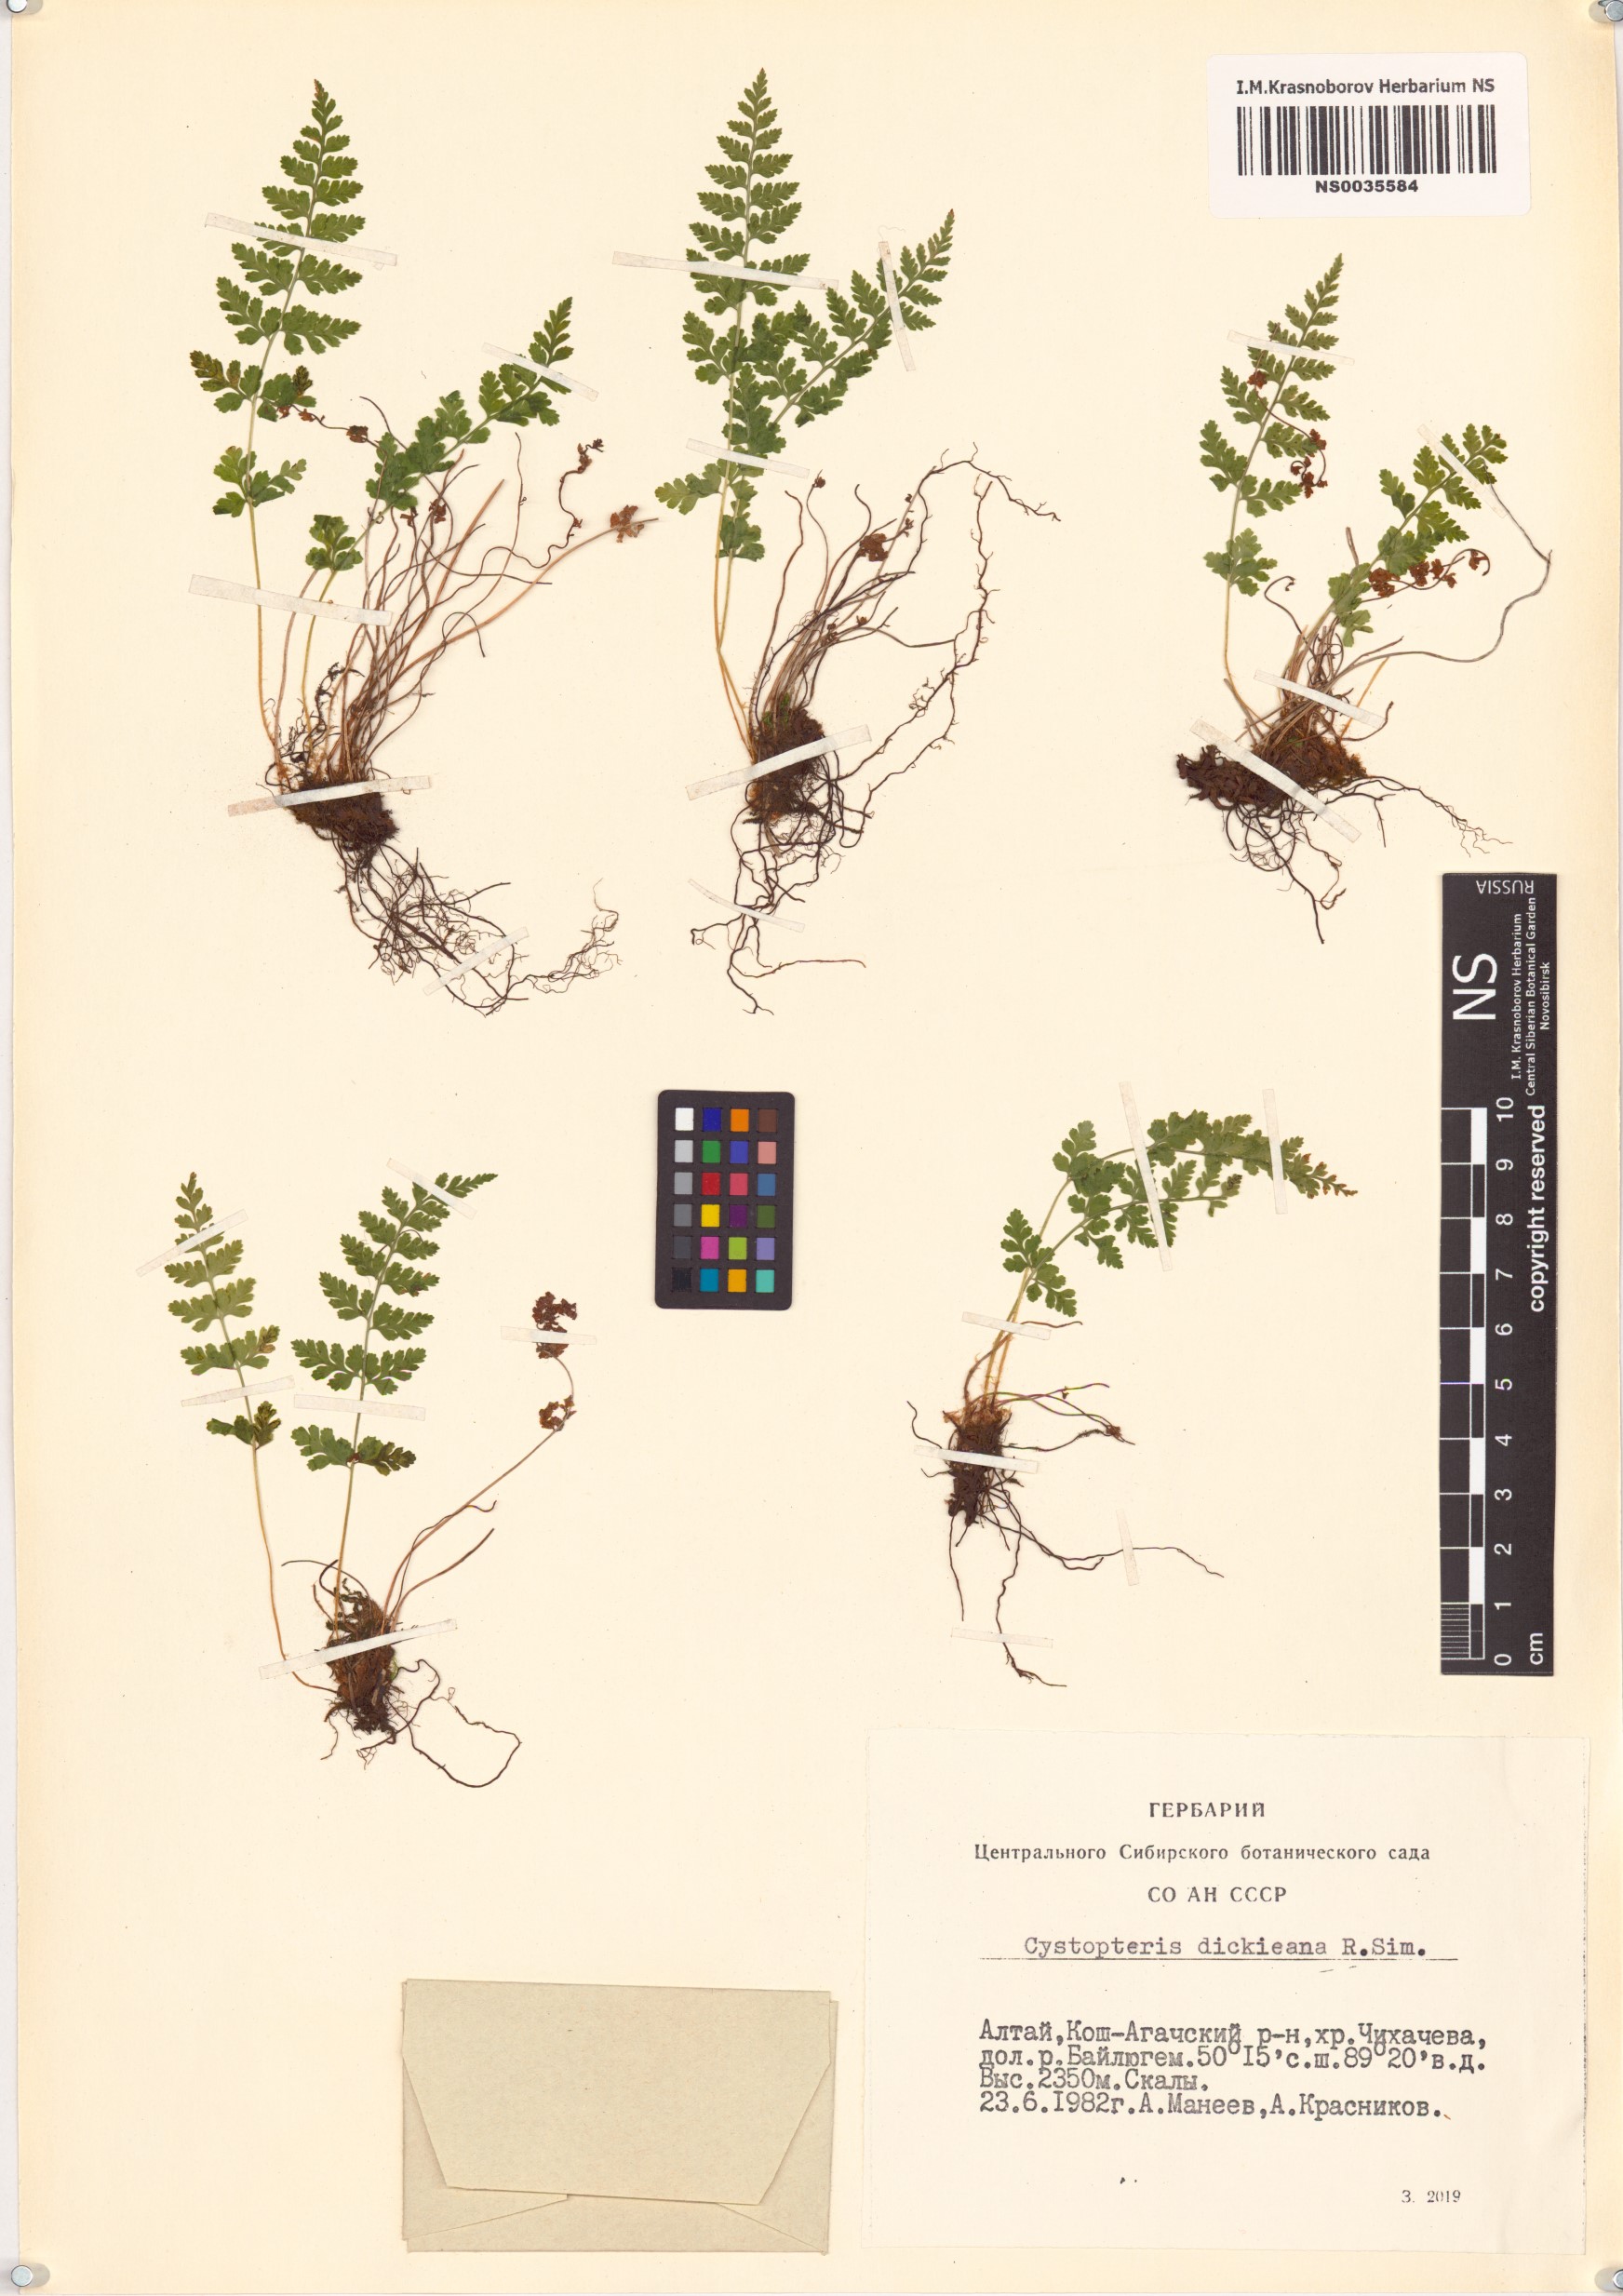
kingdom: Plantae
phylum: Tracheophyta
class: Polypodiopsida
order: Polypodiales
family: Cystopteridaceae
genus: Cystopteris
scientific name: Cystopteris dickieana
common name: Dickie's bladder-fern
